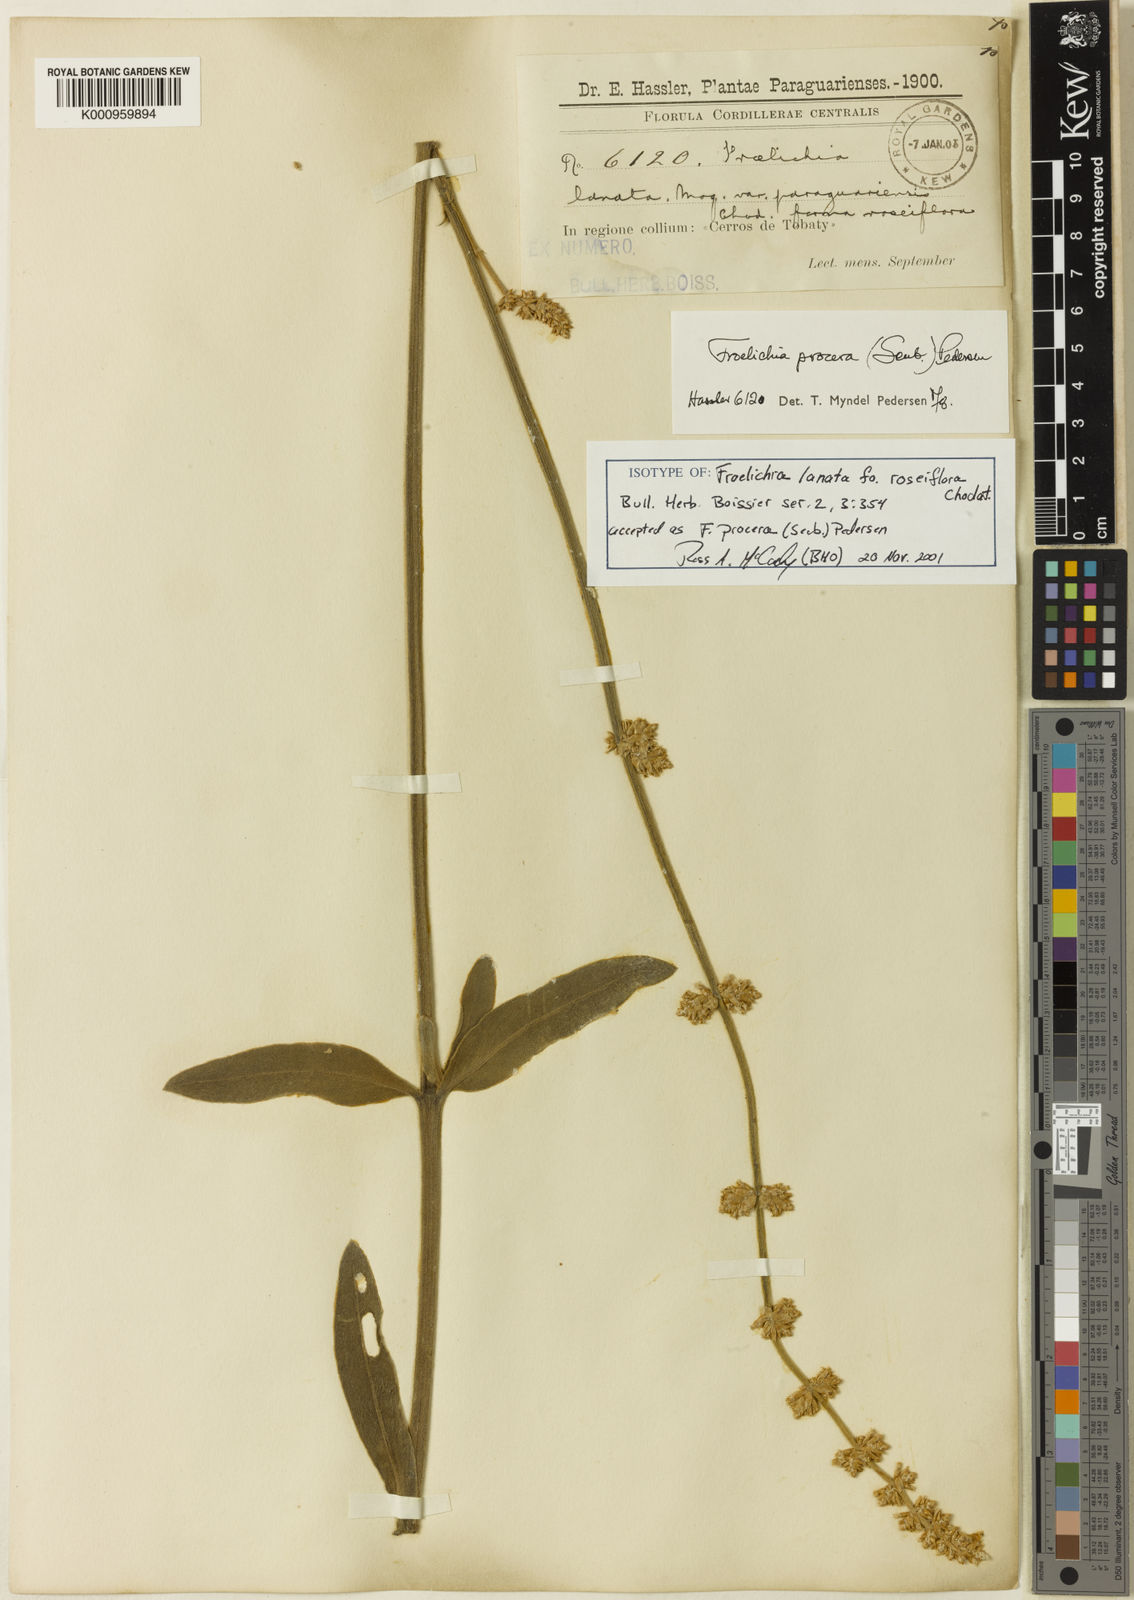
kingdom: Plantae
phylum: Tracheophyta
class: Magnoliopsida
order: Caryophyllales
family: Amaranthaceae
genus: Froelichia
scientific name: Froelichia
